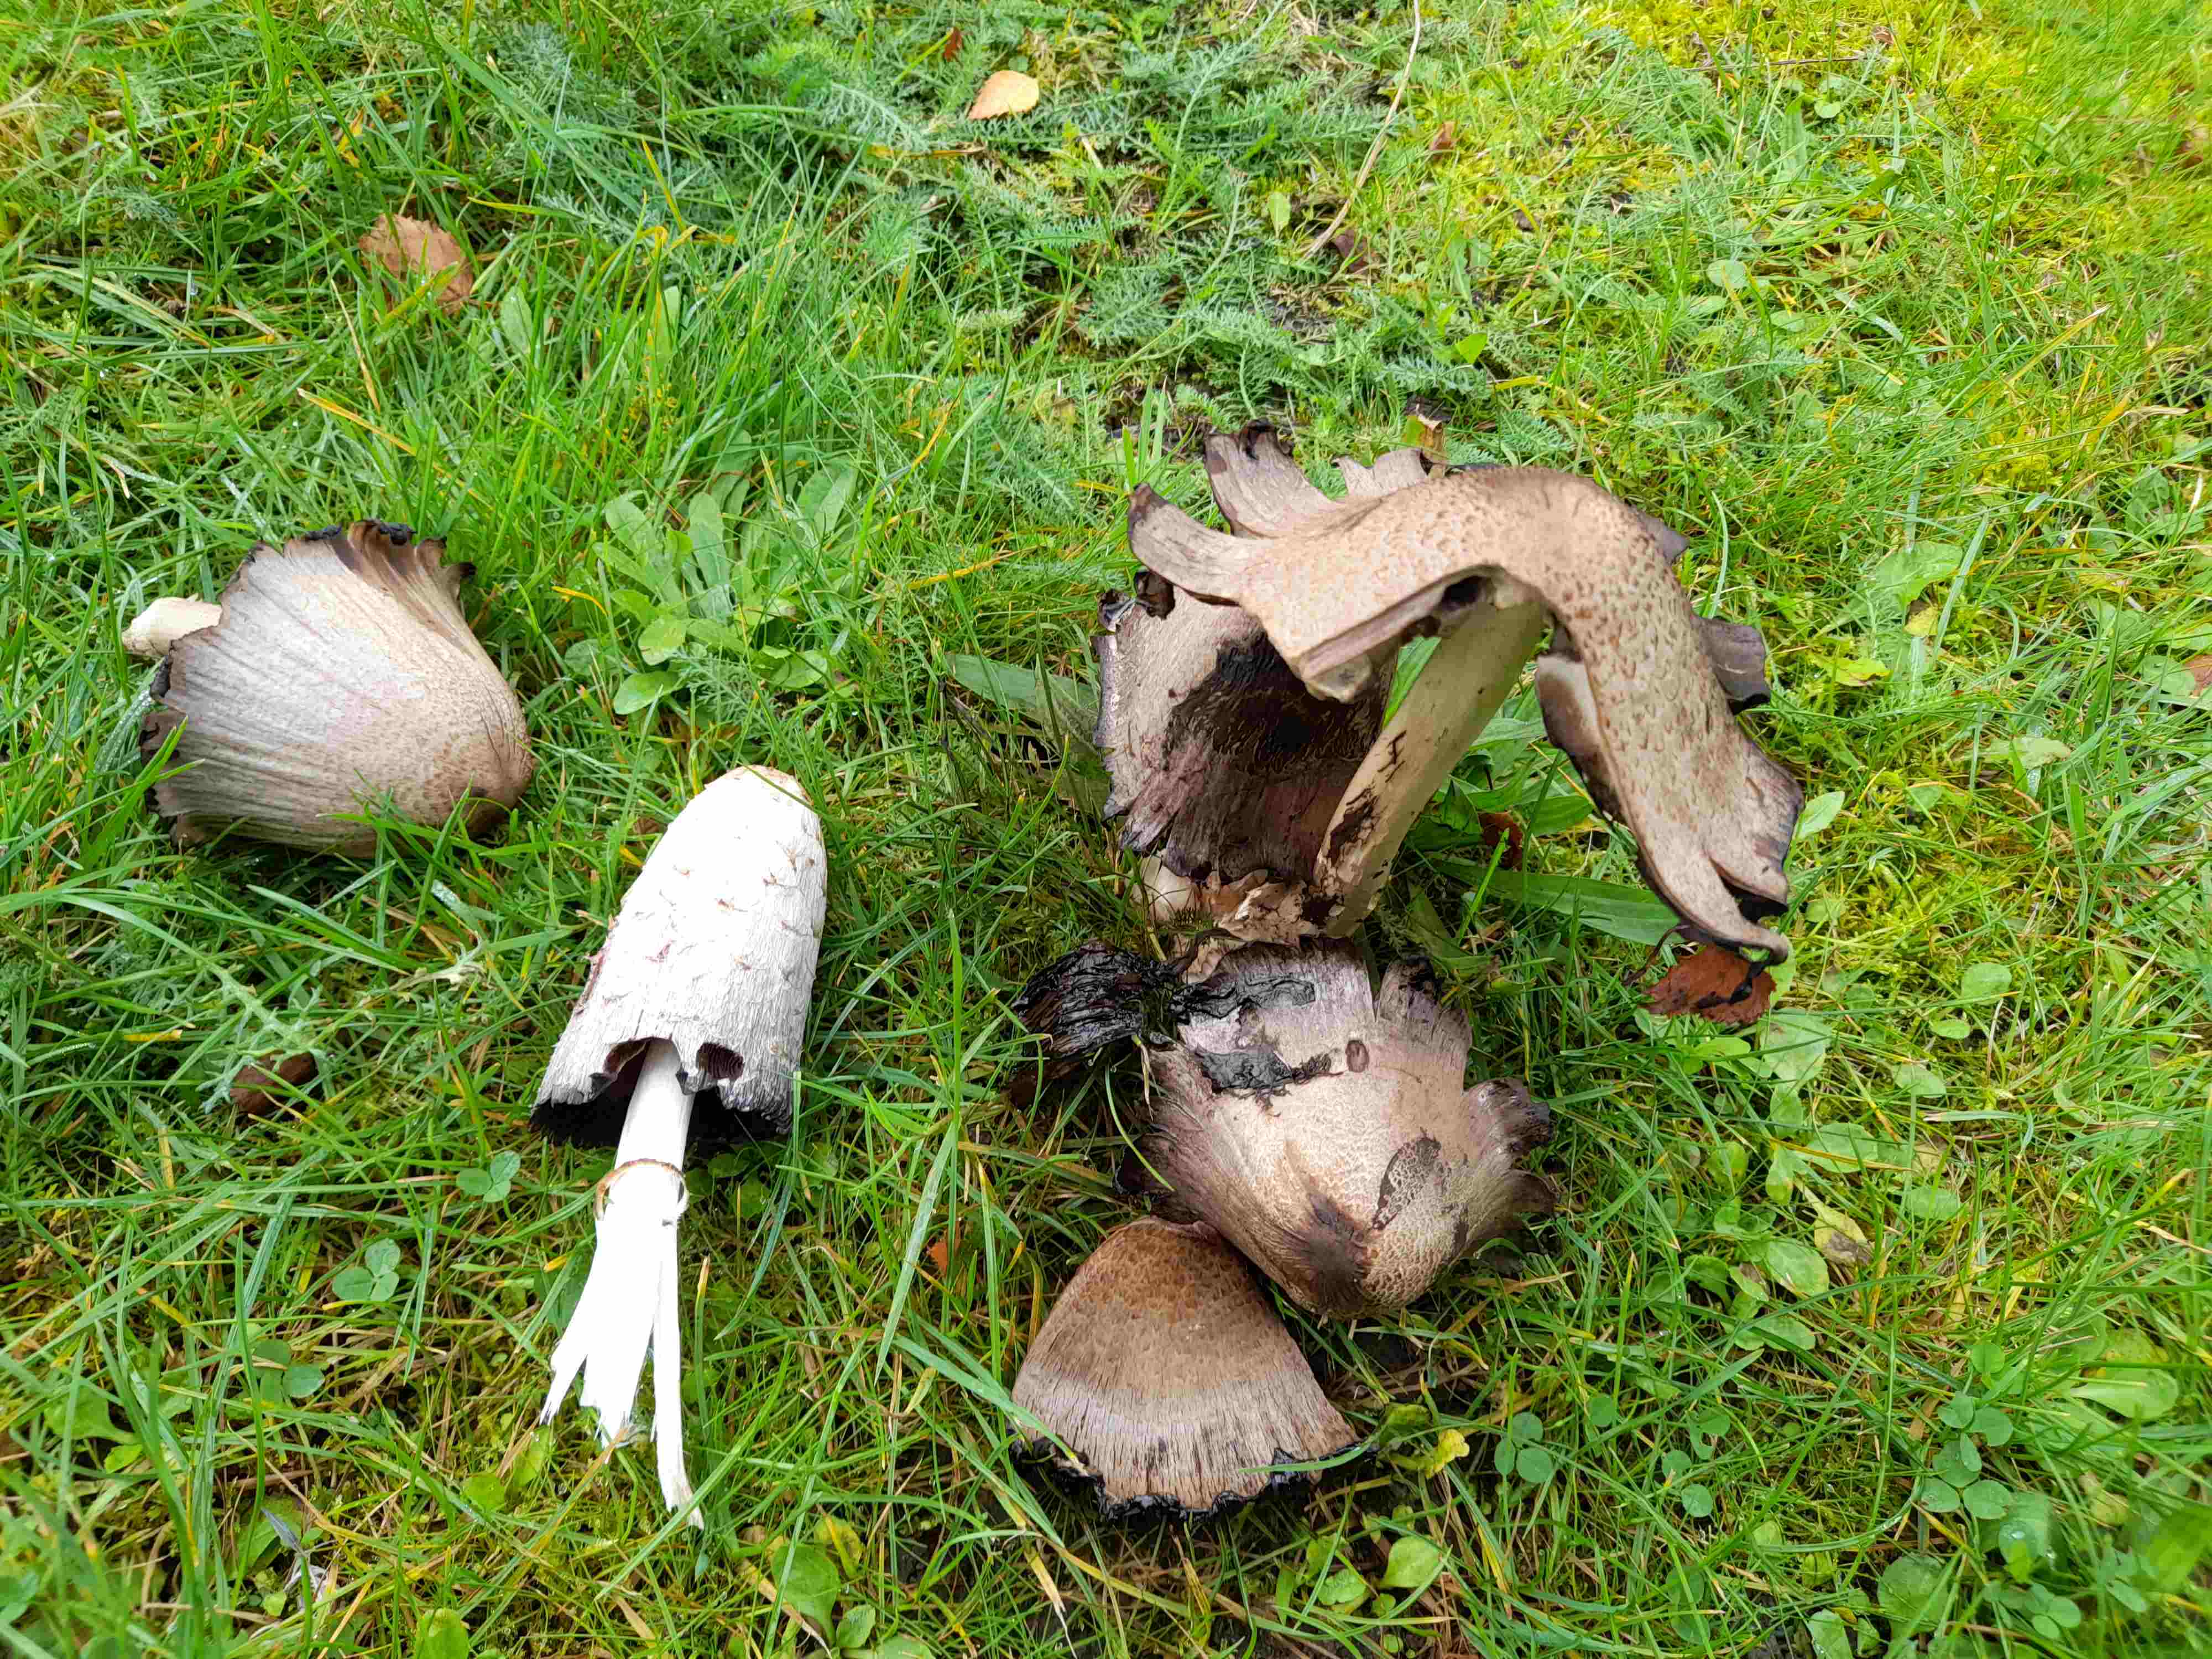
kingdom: Fungi
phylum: Basidiomycota
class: Agaricomycetes
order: Agaricales
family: Agaricaceae
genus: Coprinus
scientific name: Coprinus comatus
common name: stor parykhat
